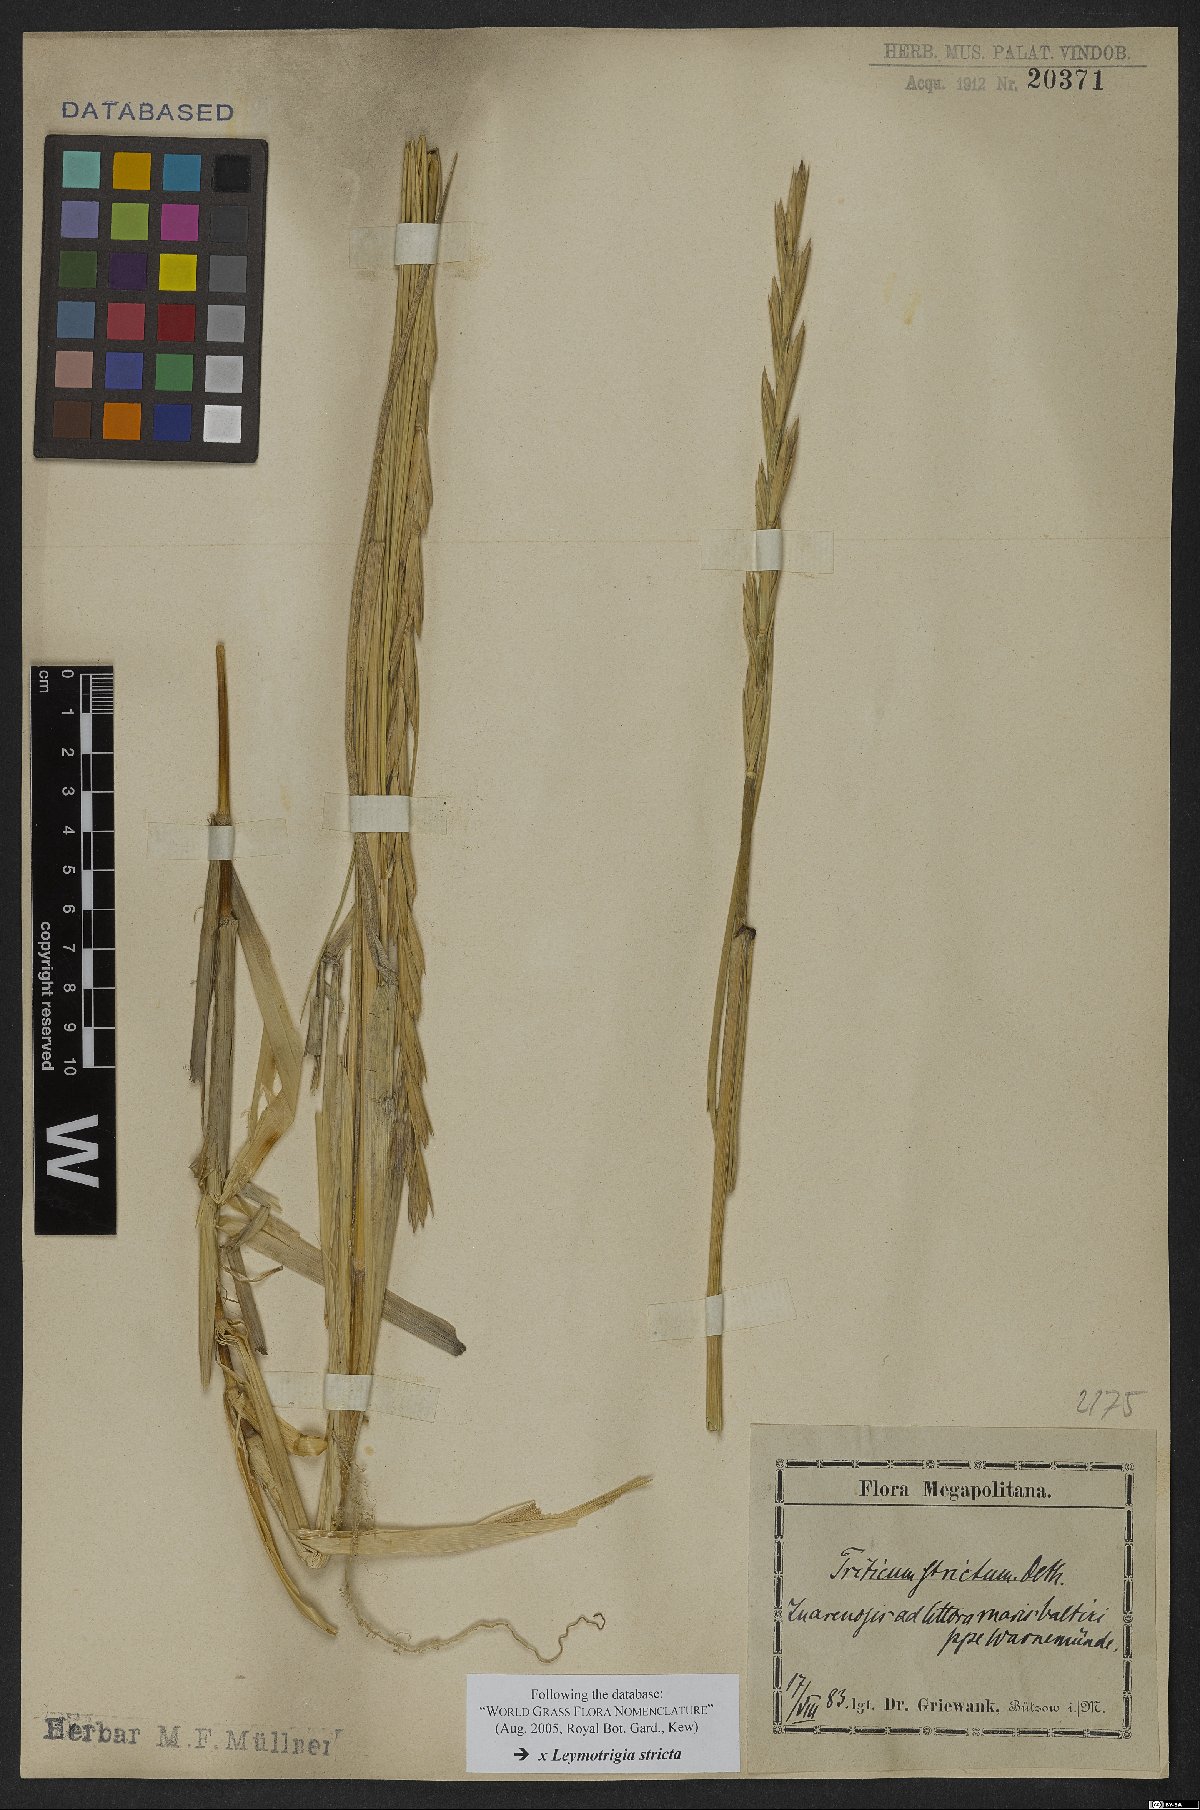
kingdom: Plantae
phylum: Tracheophyta
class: Liliopsida
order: Poales
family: Poaceae
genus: Elyleymus
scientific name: Elyleymus strictus
